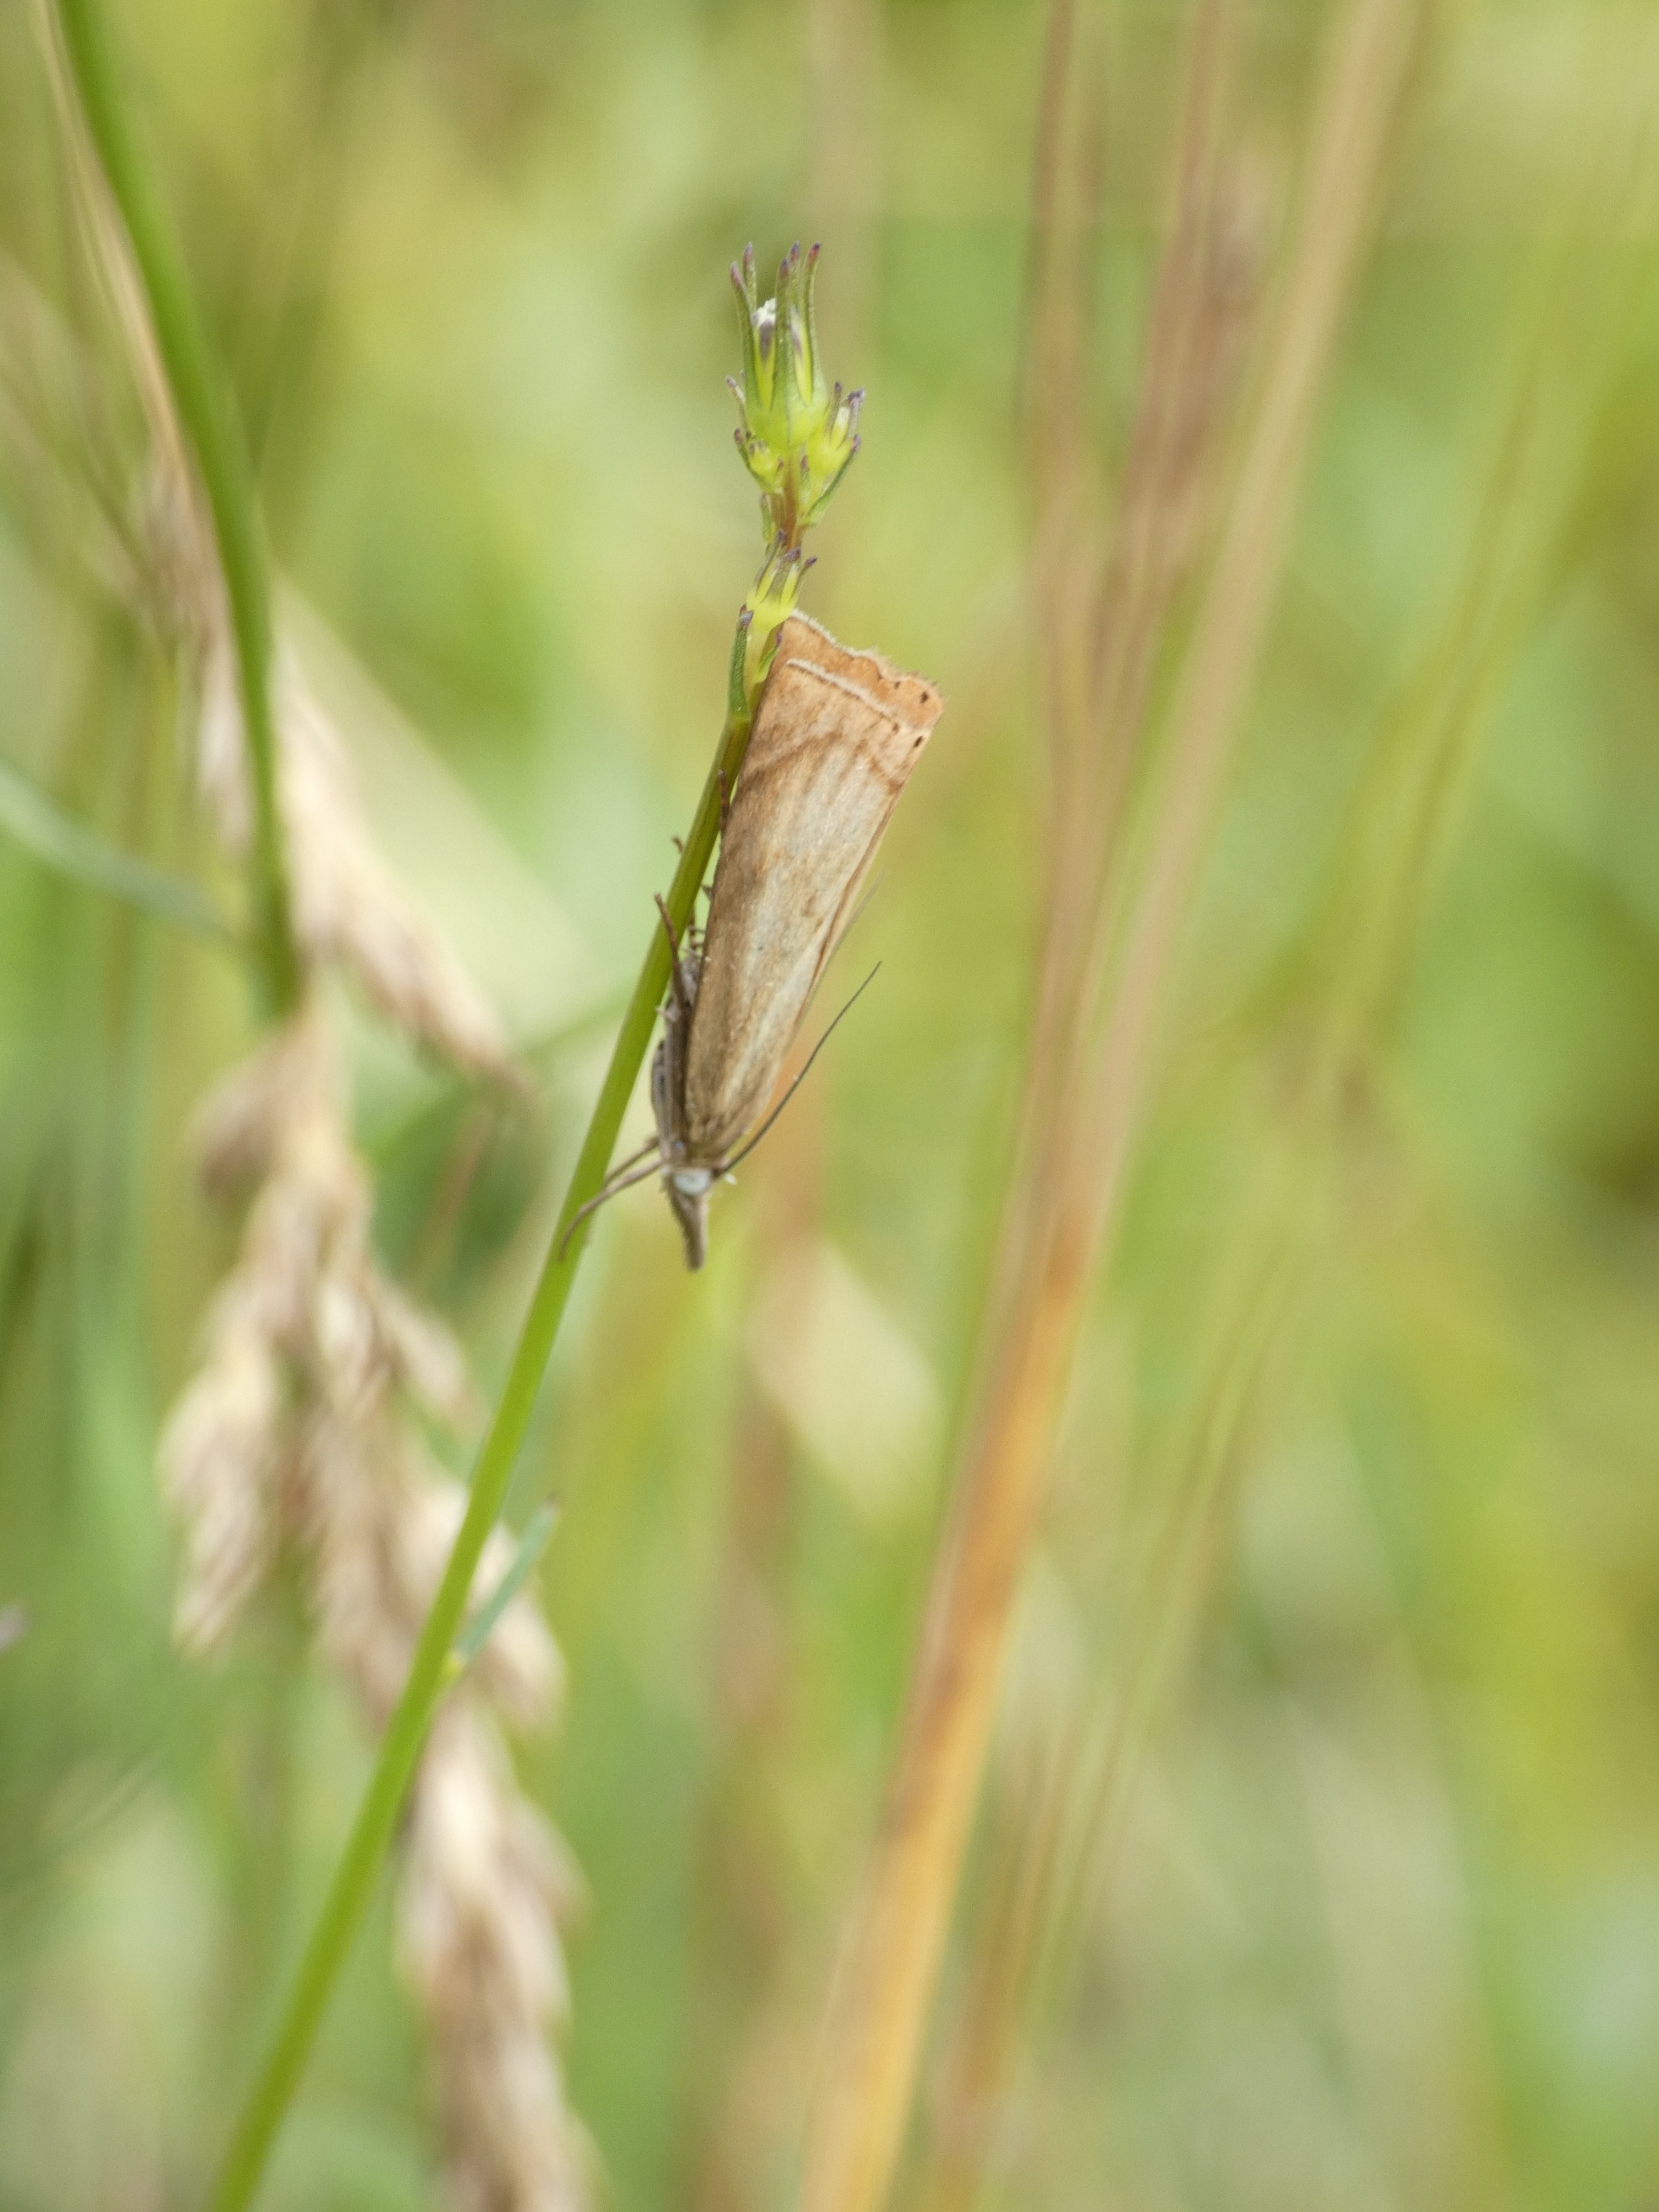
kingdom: Animalia
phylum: Arthropoda
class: Insecta
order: Lepidoptera
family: Crambidae
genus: Chrysoteuchia
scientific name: Chrysoteuchia culmella
